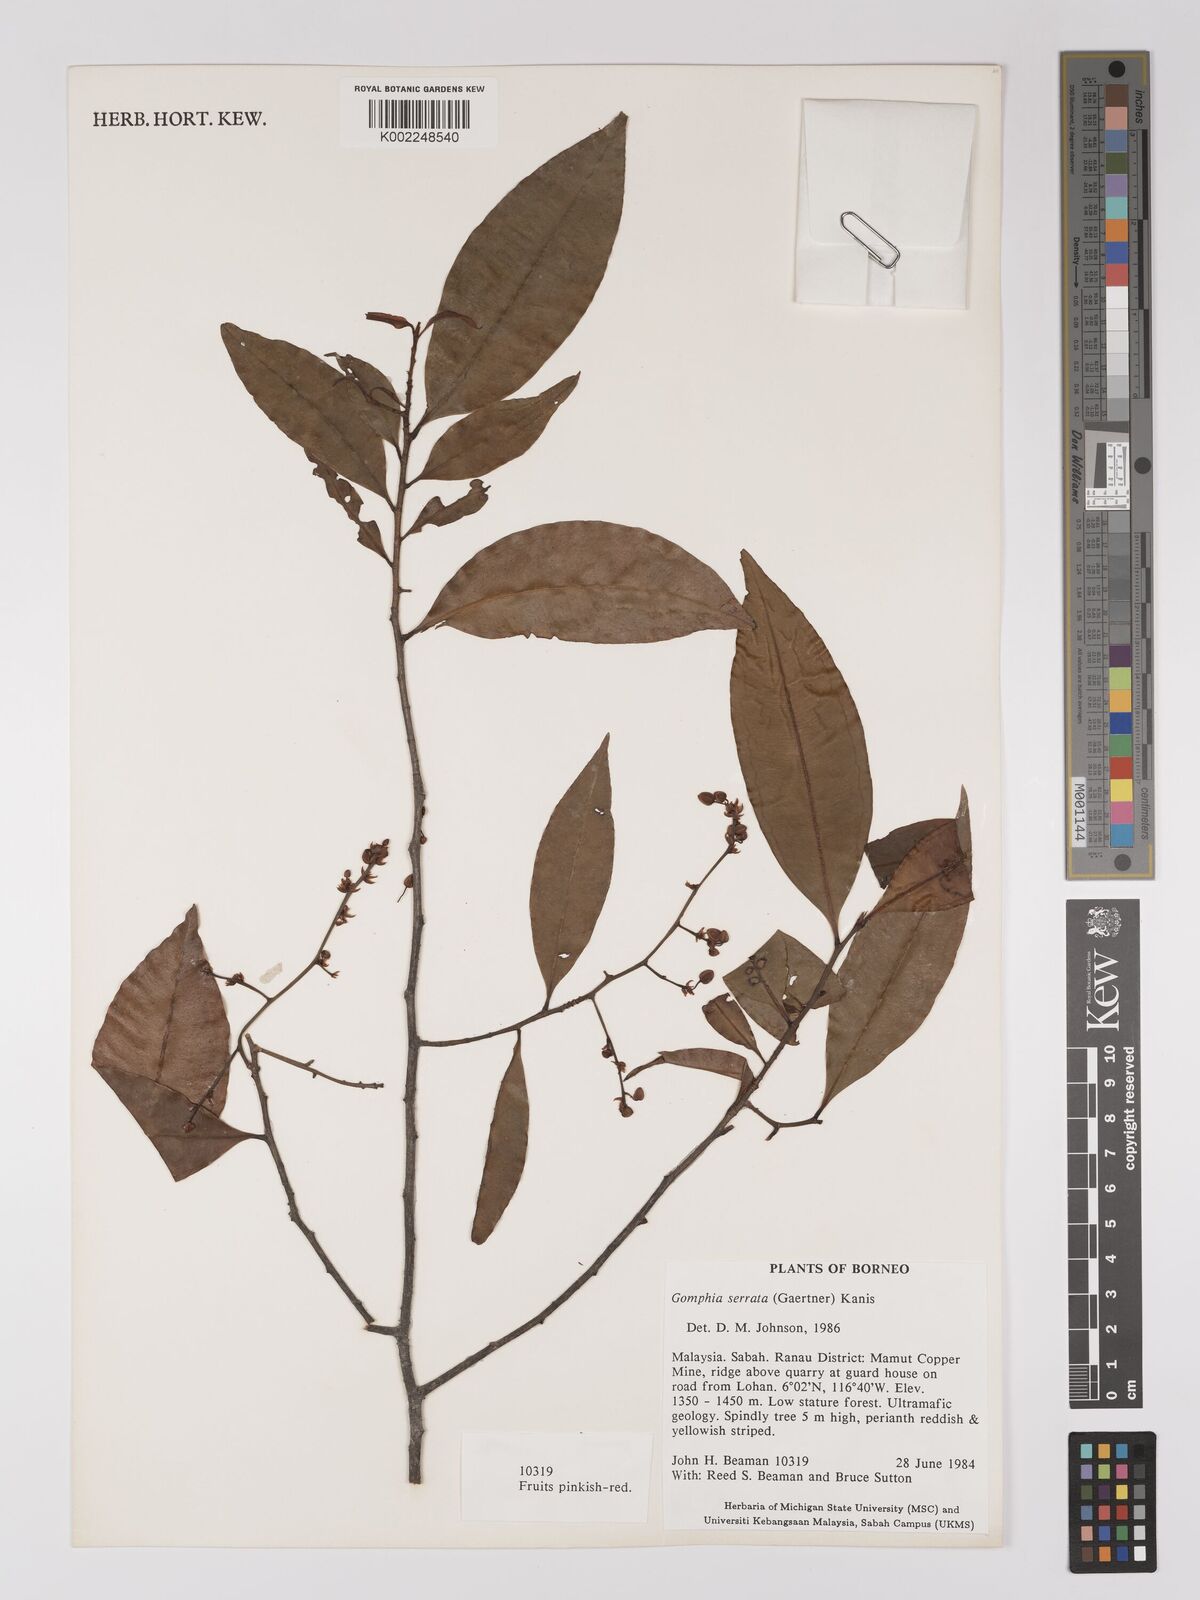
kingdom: Plantae
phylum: Tracheophyta
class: Magnoliopsida
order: Malpighiales
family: Ochnaceae
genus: Gomphia
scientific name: Gomphia serrata
